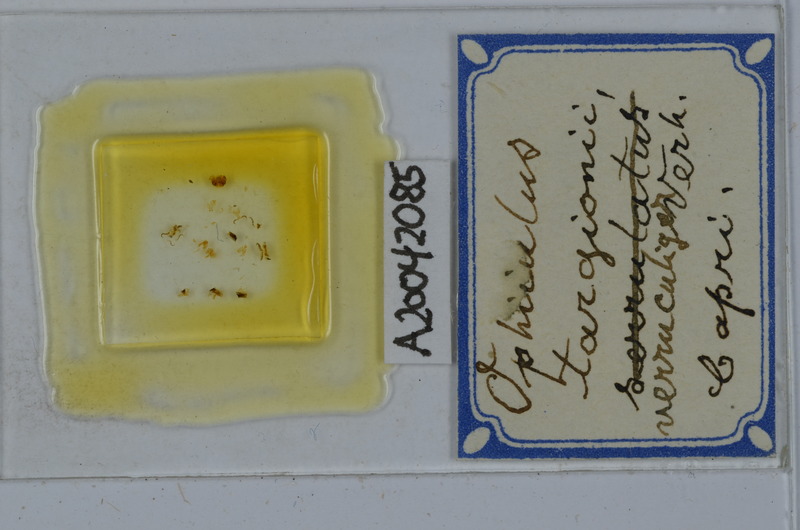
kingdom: Animalia
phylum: Arthropoda
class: Diplopoda
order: Julida
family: Julidae
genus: Ophyiulus
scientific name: Ophyiulus targionii
